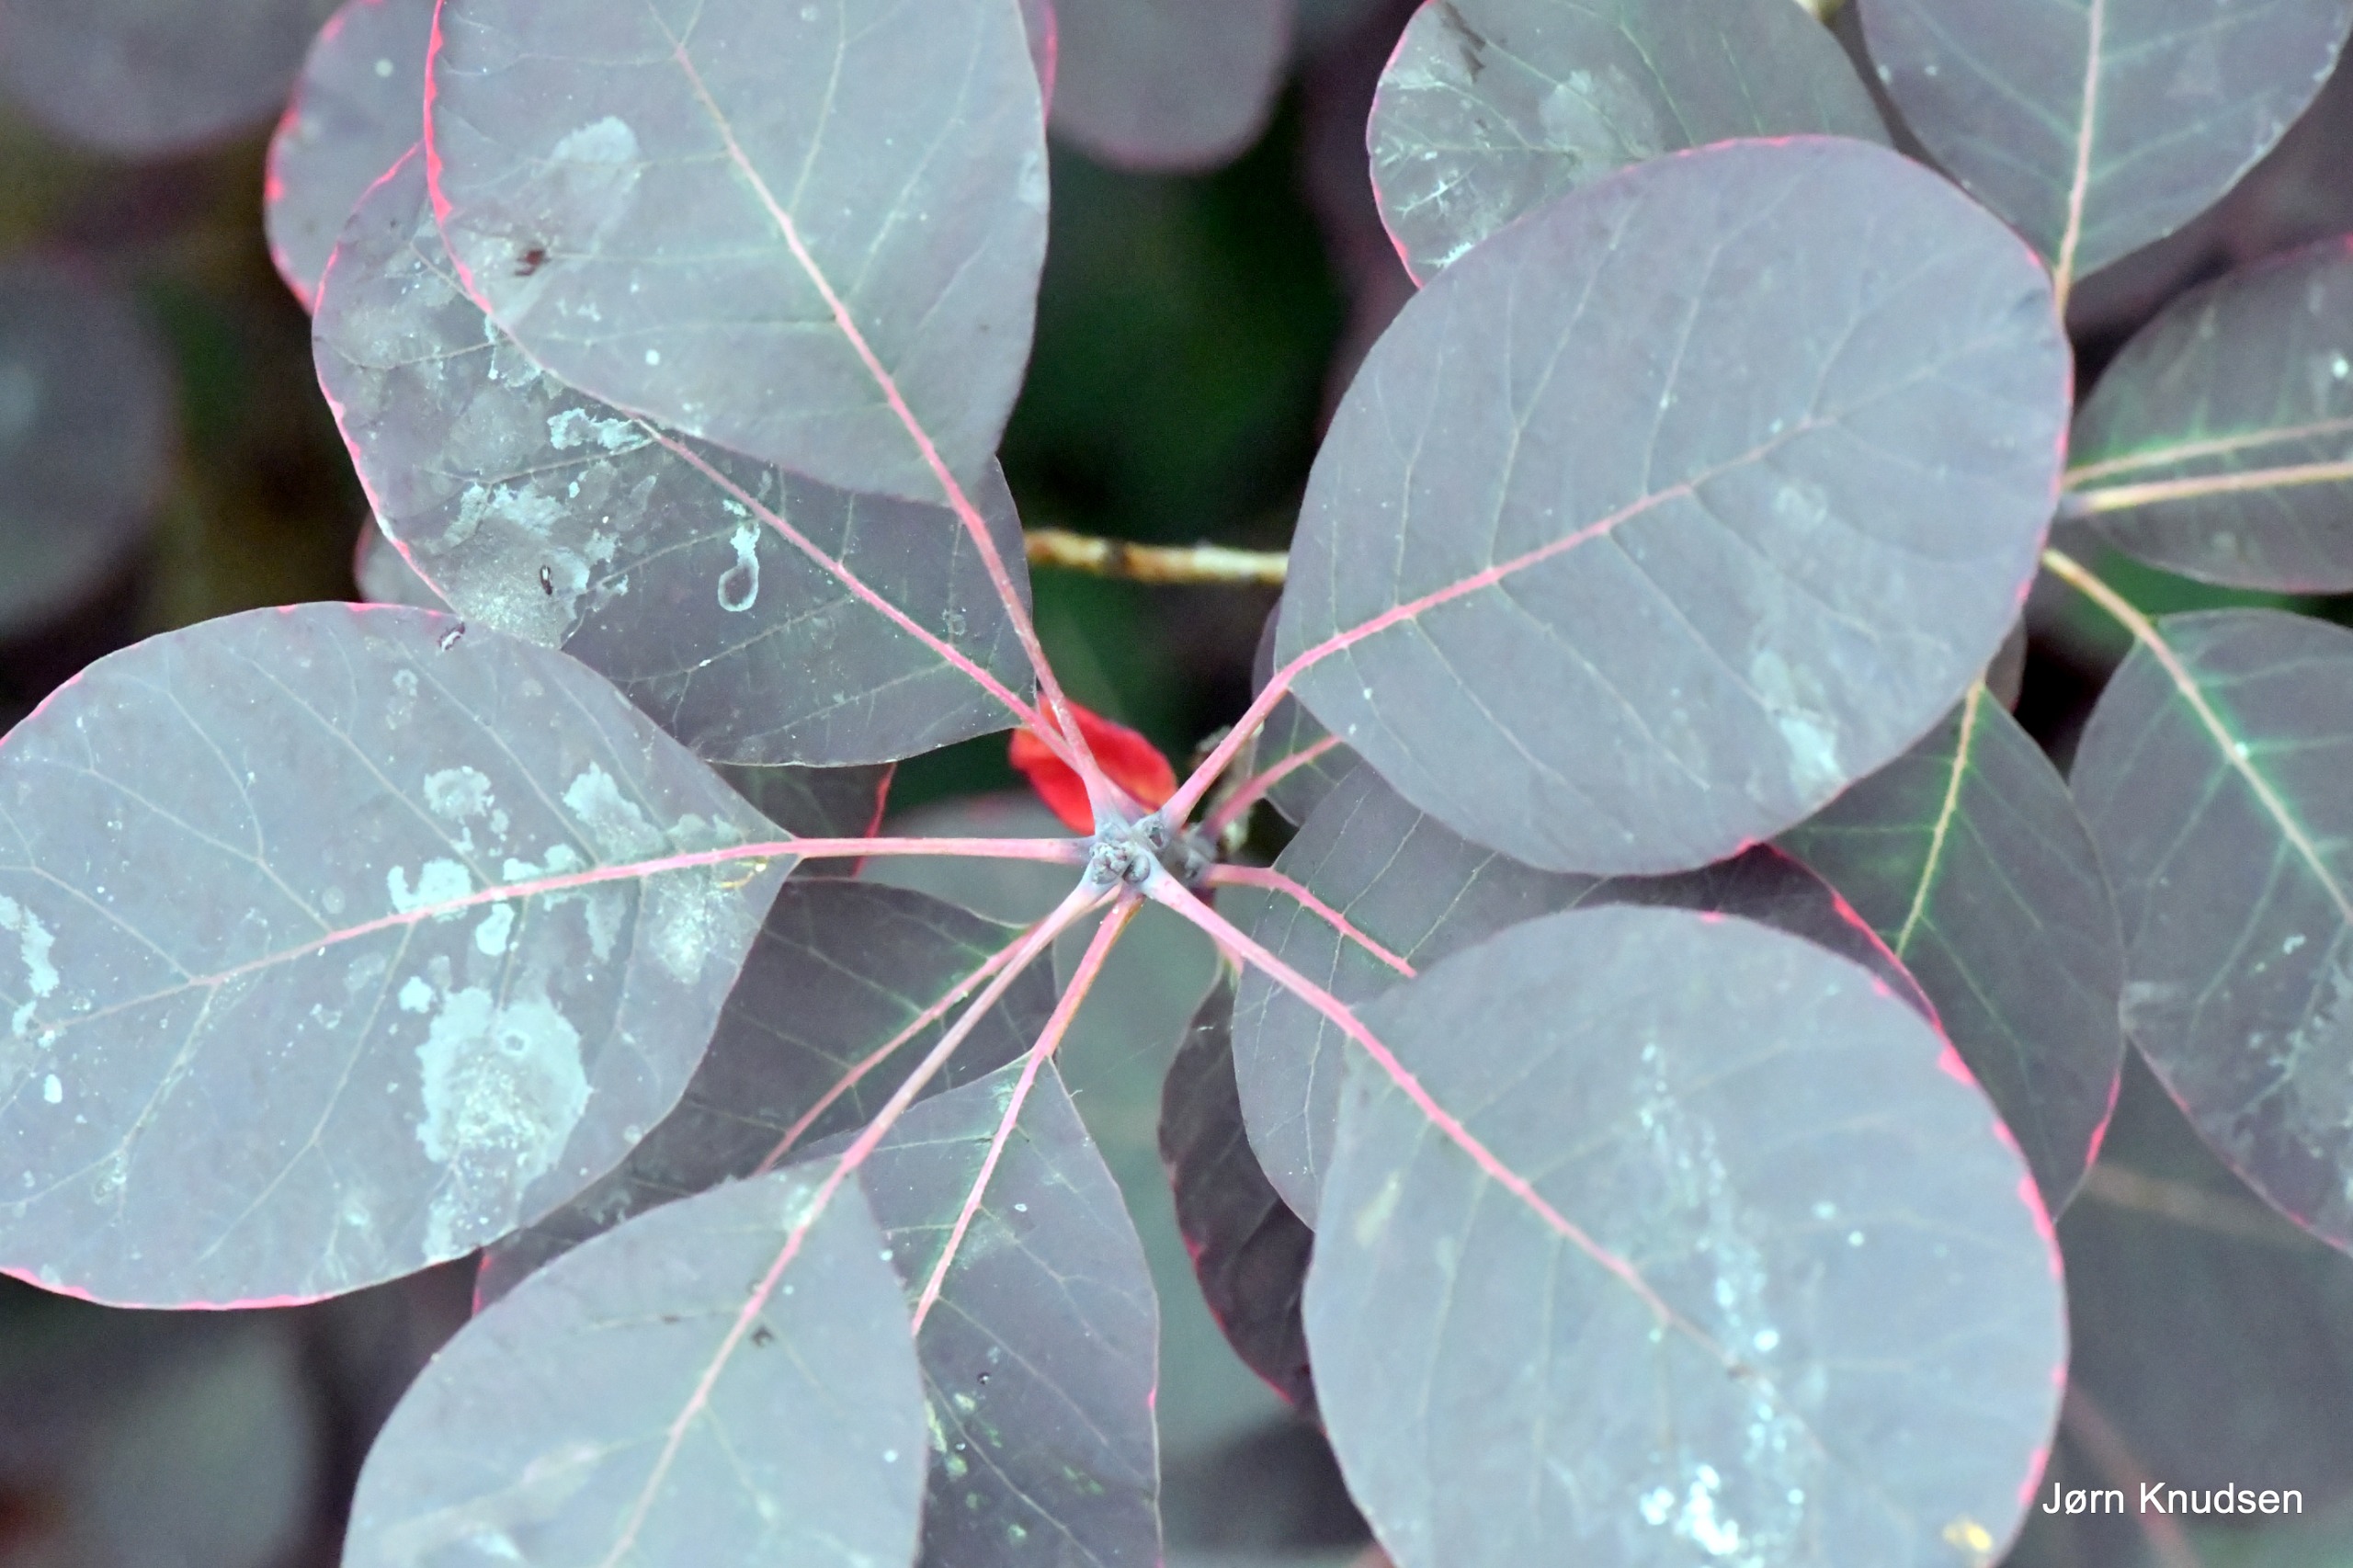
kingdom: Plantae
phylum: Tracheophyta
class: Magnoliopsida
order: Celastrales
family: Celastraceae
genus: Euonymus
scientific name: Euonymus europaeus
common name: Benved
